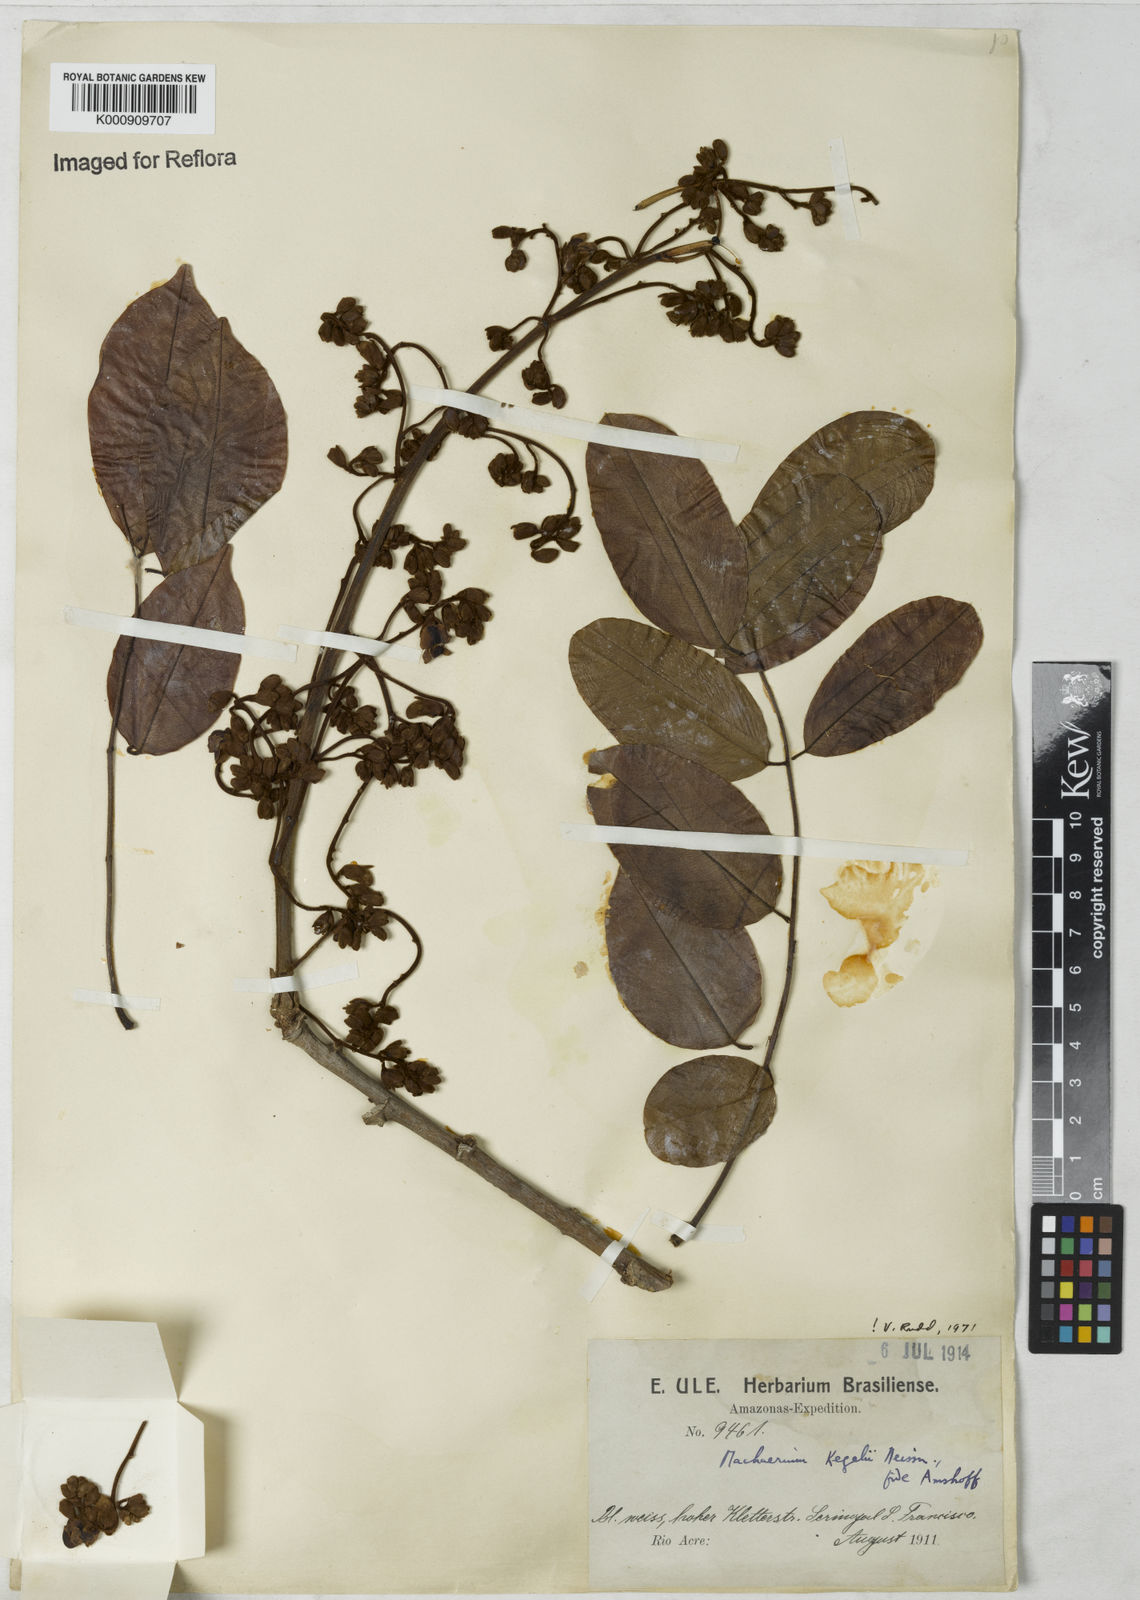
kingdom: Plantae
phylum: Tracheophyta
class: Magnoliopsida
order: Fabales
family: Fabaceae
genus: Machaerium
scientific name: Machaerium kegelii
